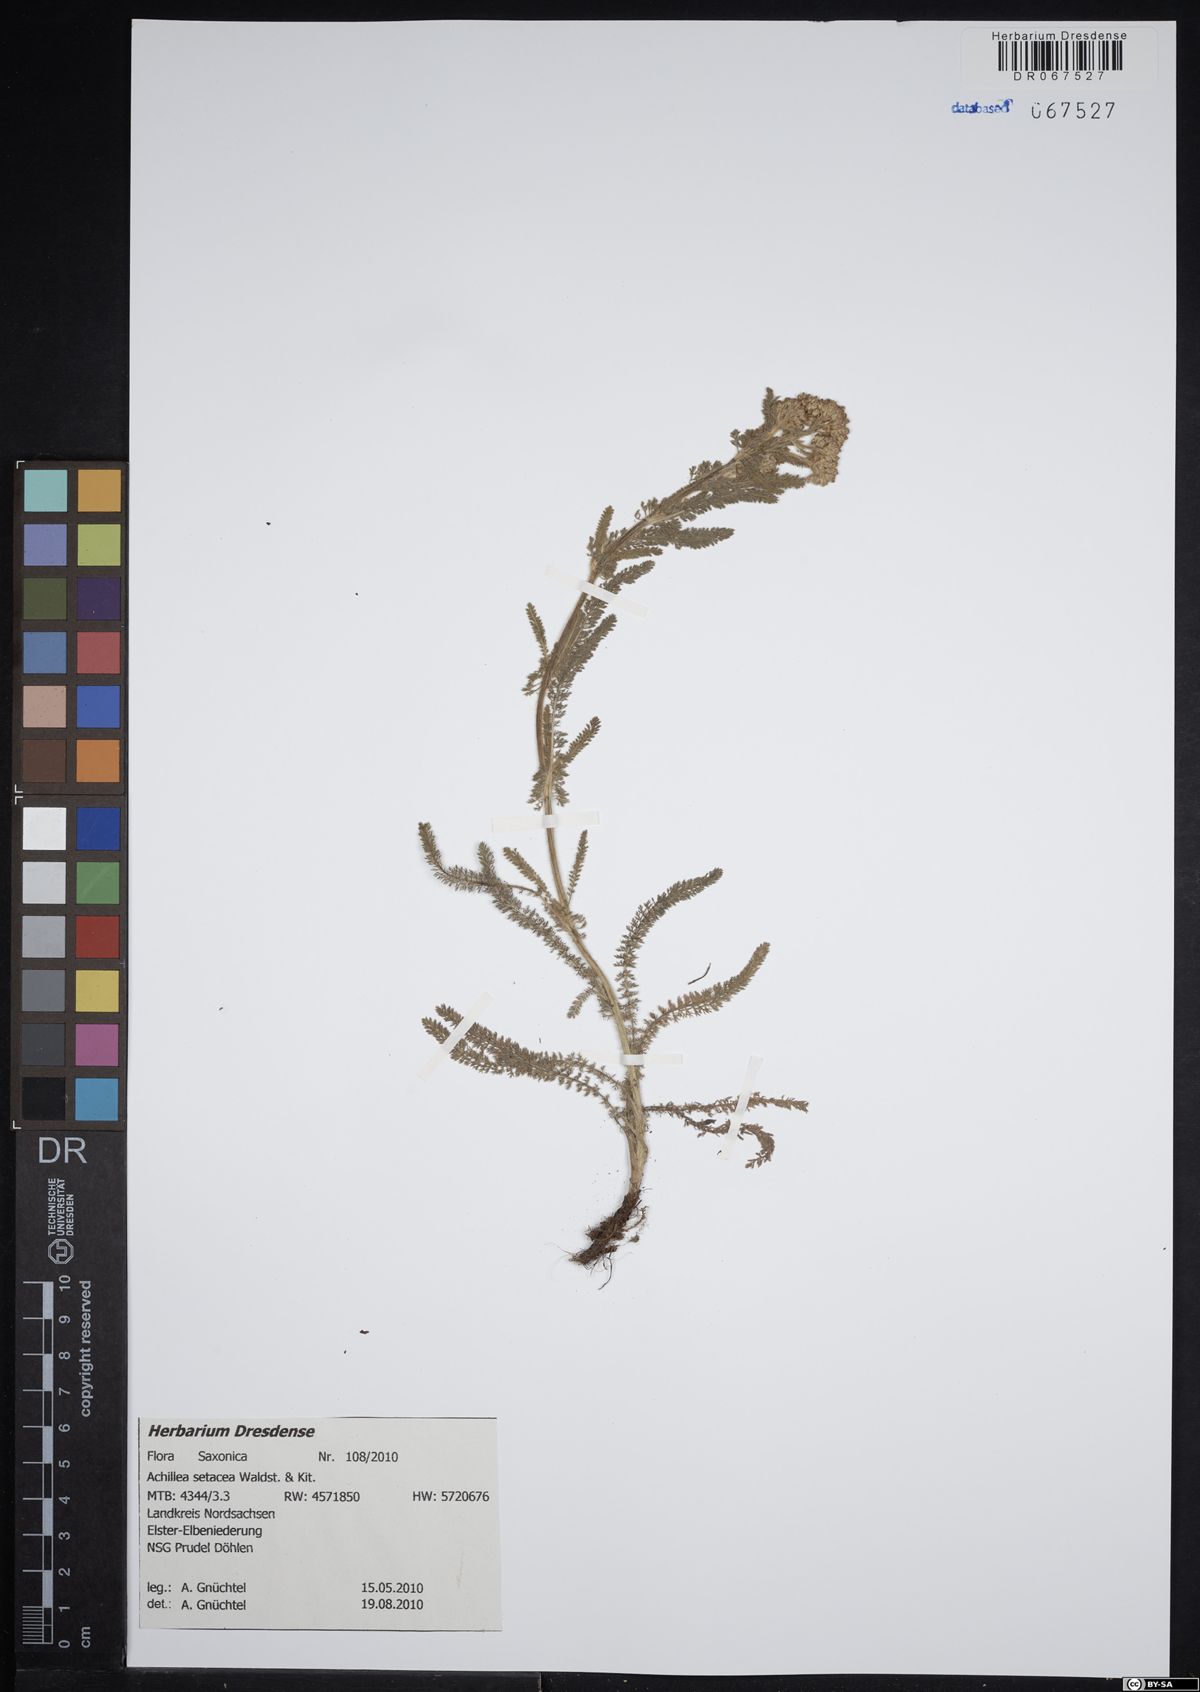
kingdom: Plantae
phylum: Tracheophyta
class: Magnoliopsida
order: Asterales
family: Asteraceae
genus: Achillea
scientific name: Achillea setacea
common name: Bristly yarrow
